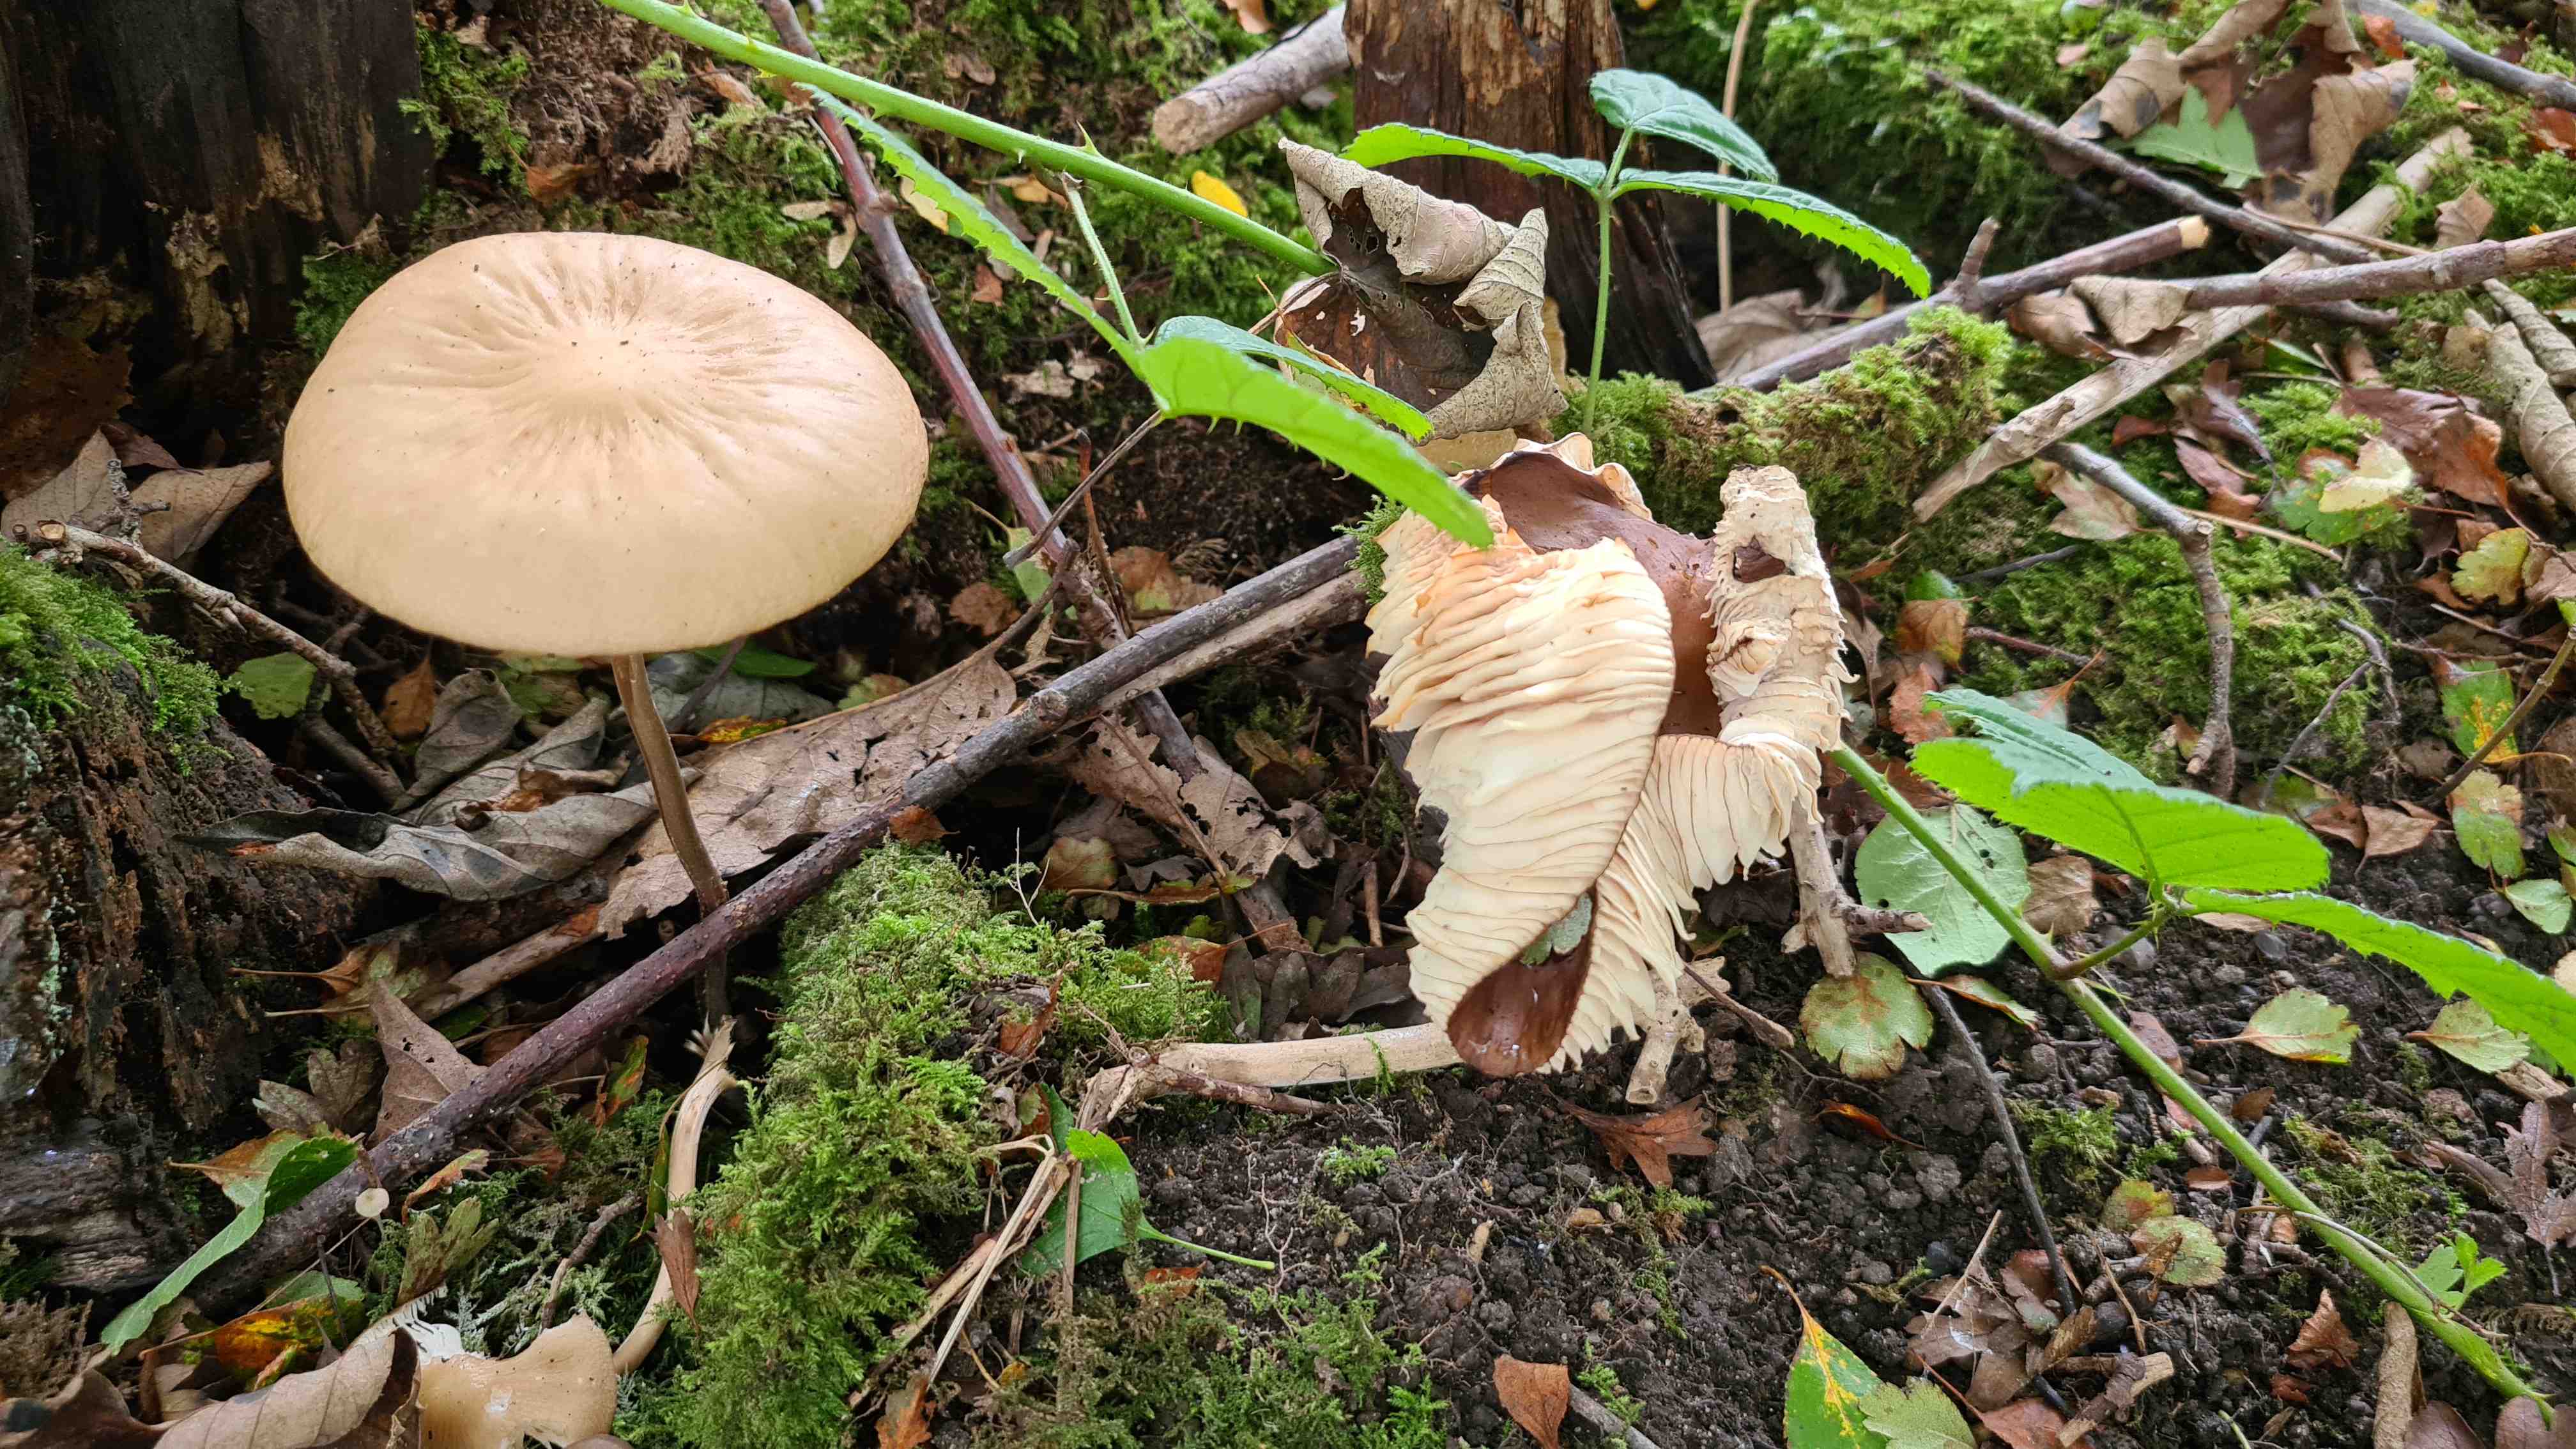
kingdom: Fungi
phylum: Basidiomycota
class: Agaricomycetes
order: Agaricales
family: Physalacriaceae
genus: Hymenopellis
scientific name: Hymenopellis radicata
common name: almindelig pælerodshat
